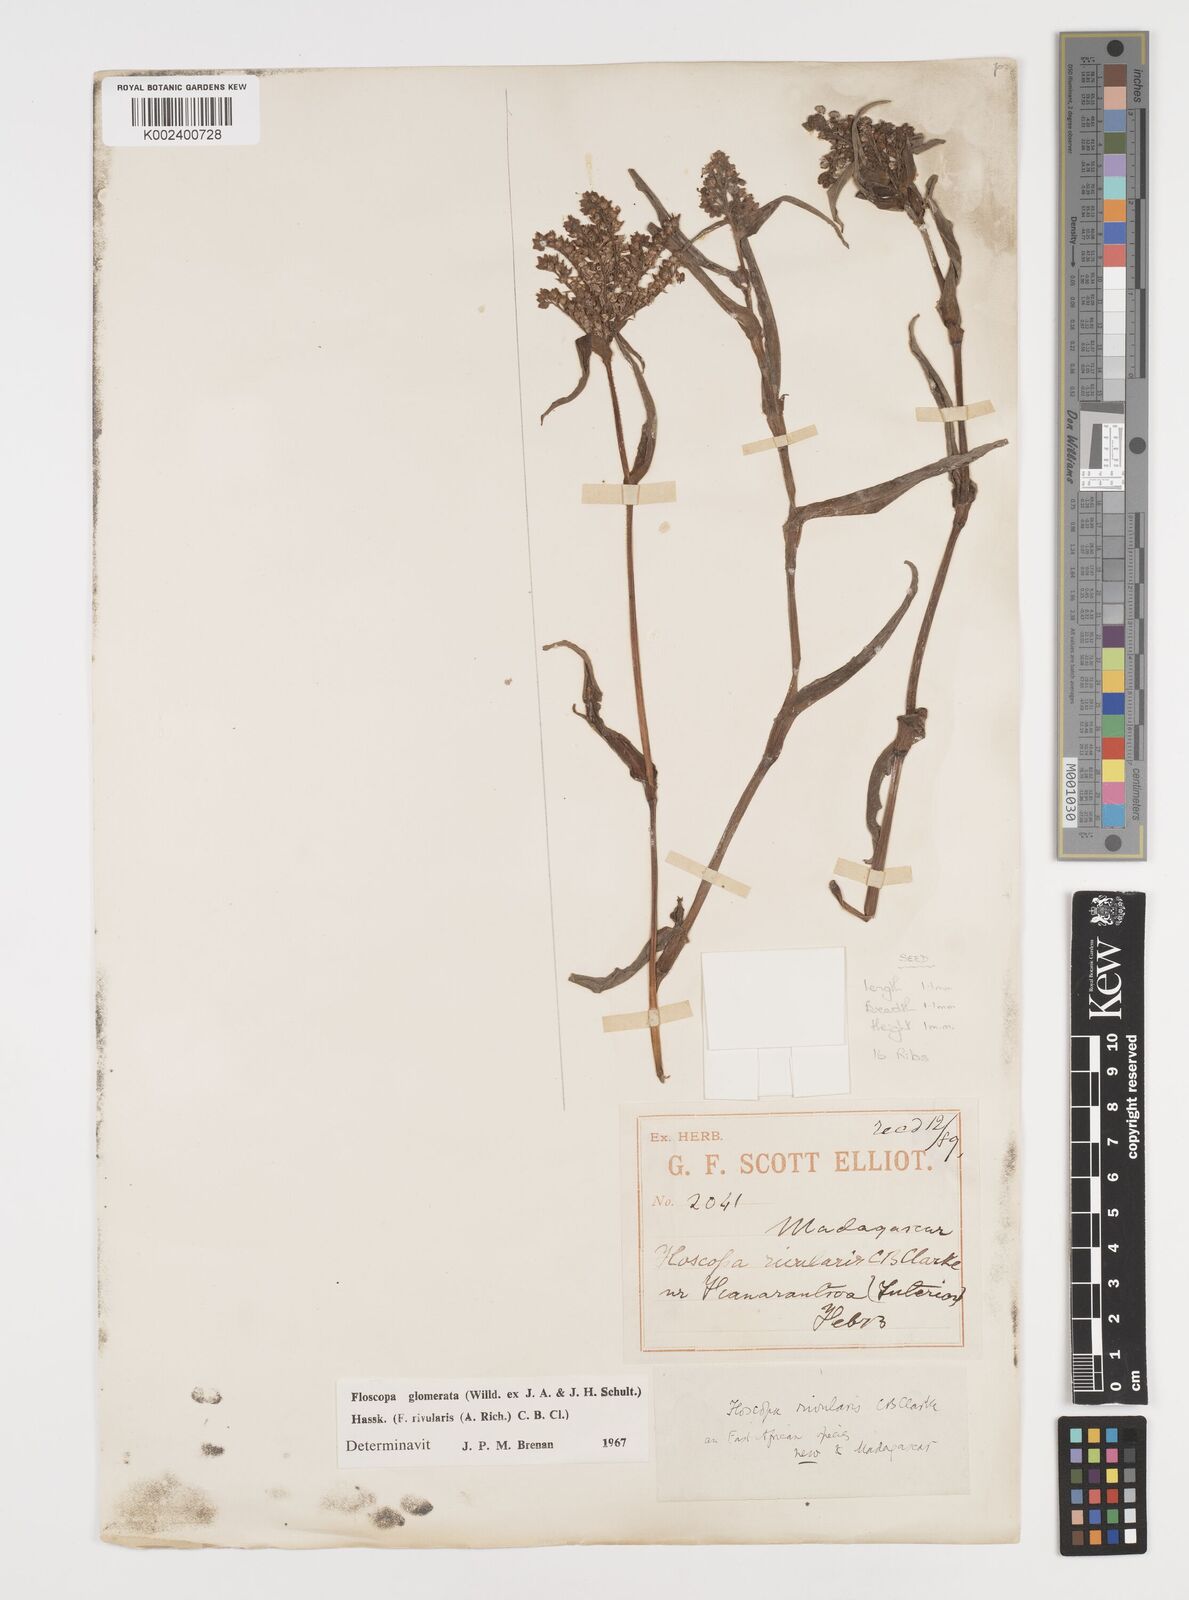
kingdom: Plantae
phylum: Tracheophyta
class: Liliopsida
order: Commelinales
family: Commelinaceae
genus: Floscopa
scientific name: Floscopa glomerata
